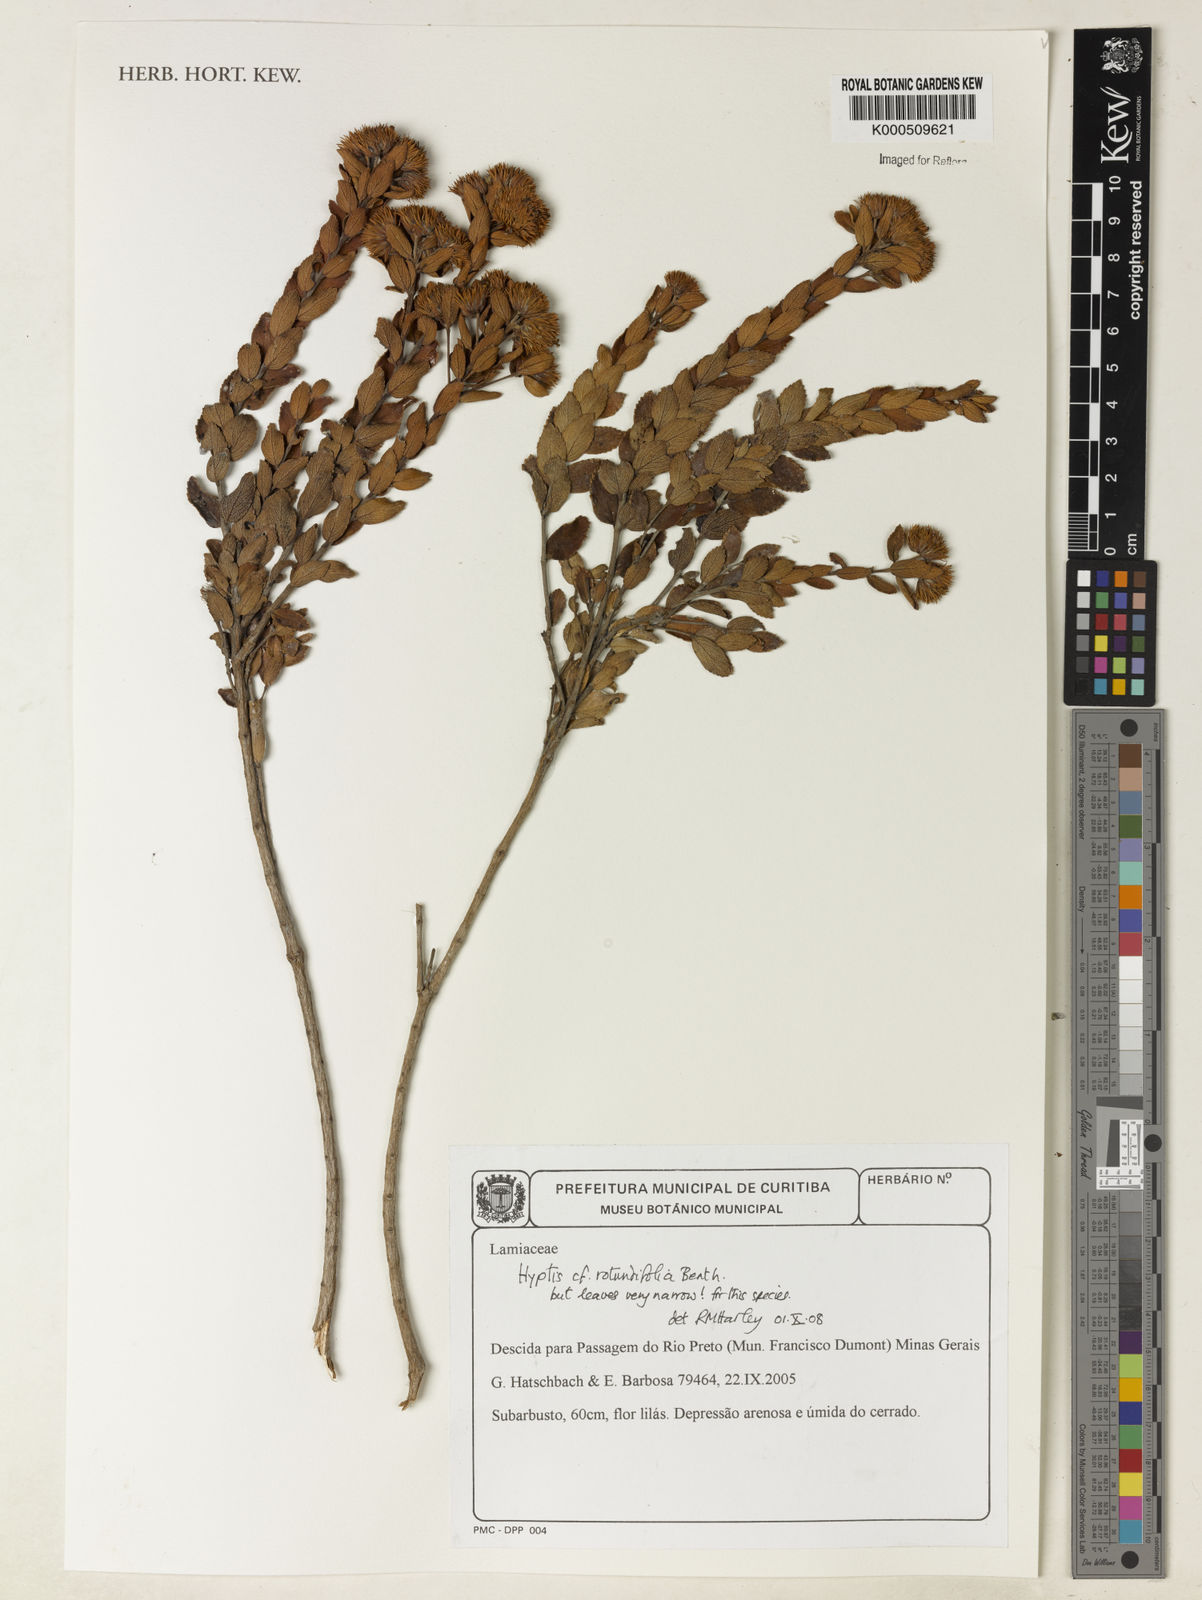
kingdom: Plantae
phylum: Tracheophyta
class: Magnoliopsida
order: Lamiales
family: Lamiaceae
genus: Hyptis
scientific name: Hyptis rotundifolia
